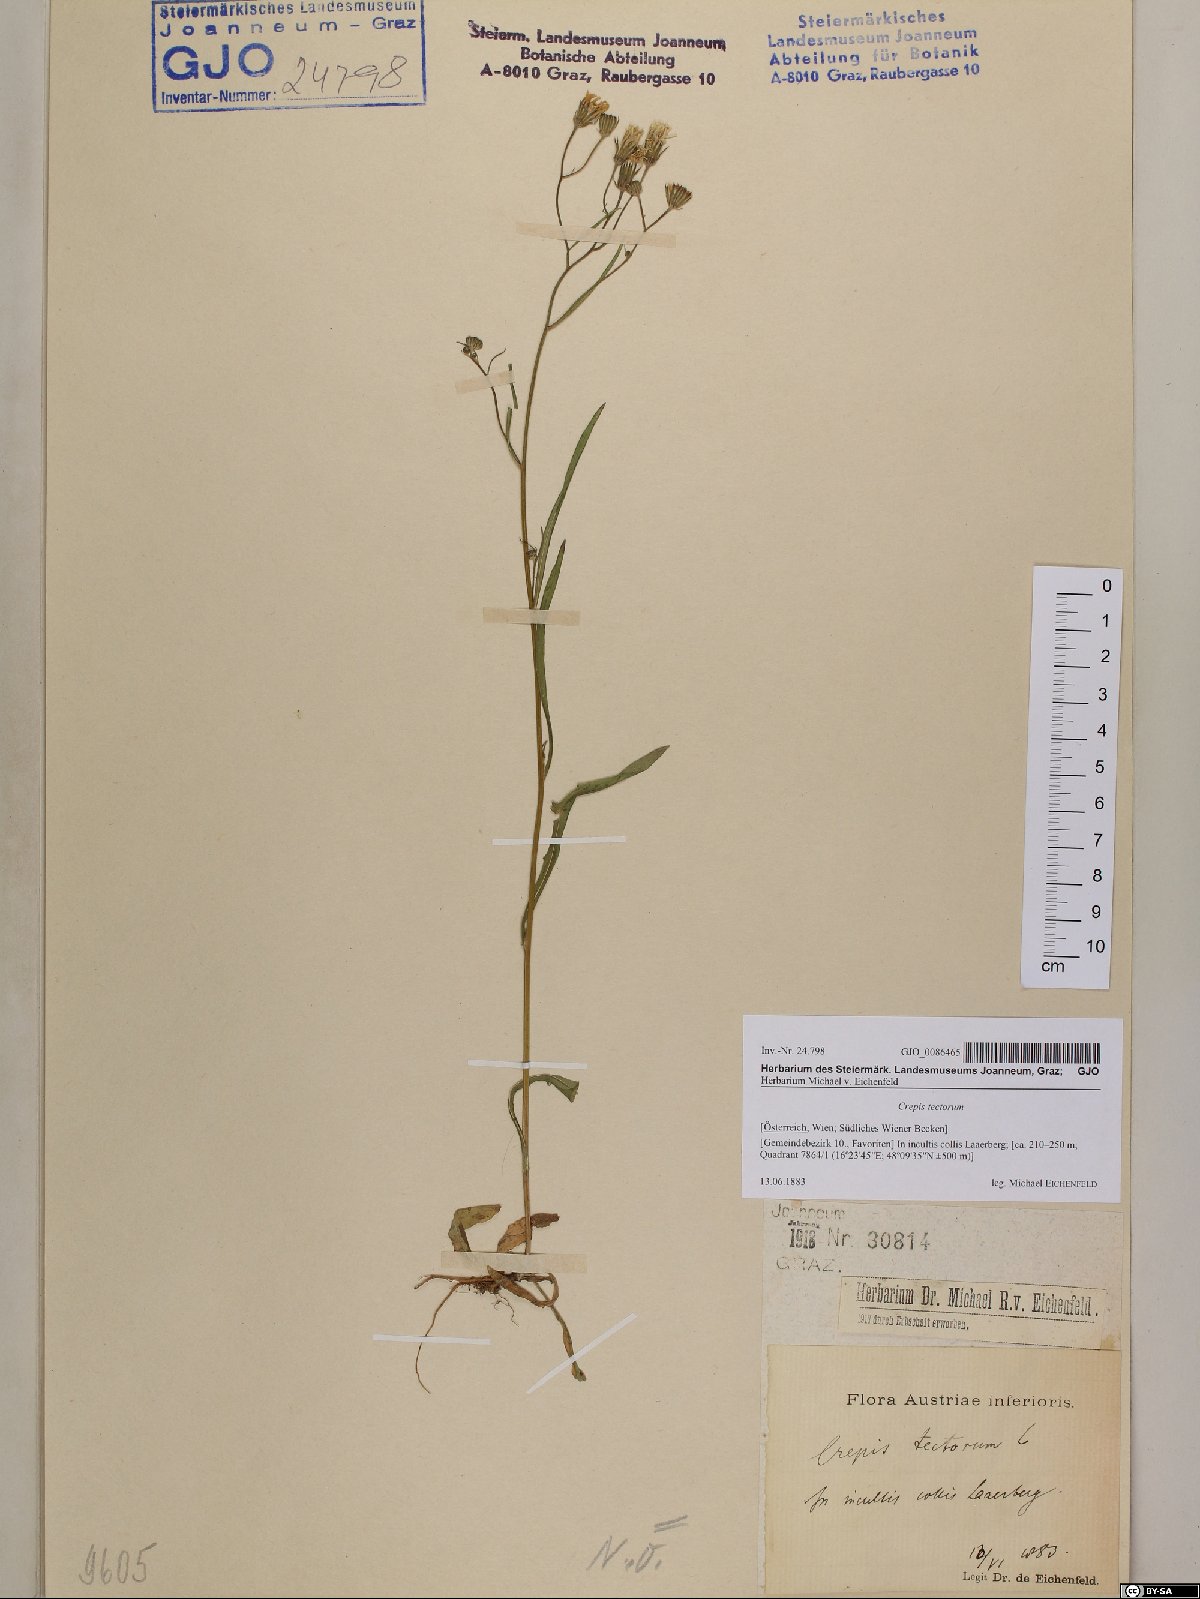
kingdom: Plantae
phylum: Tracheophyta
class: Magnoliopsida
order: Asterales
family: Asteraceae
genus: Crepis
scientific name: Crepis tectorum
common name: Narrow-leaved hawk's-beard
